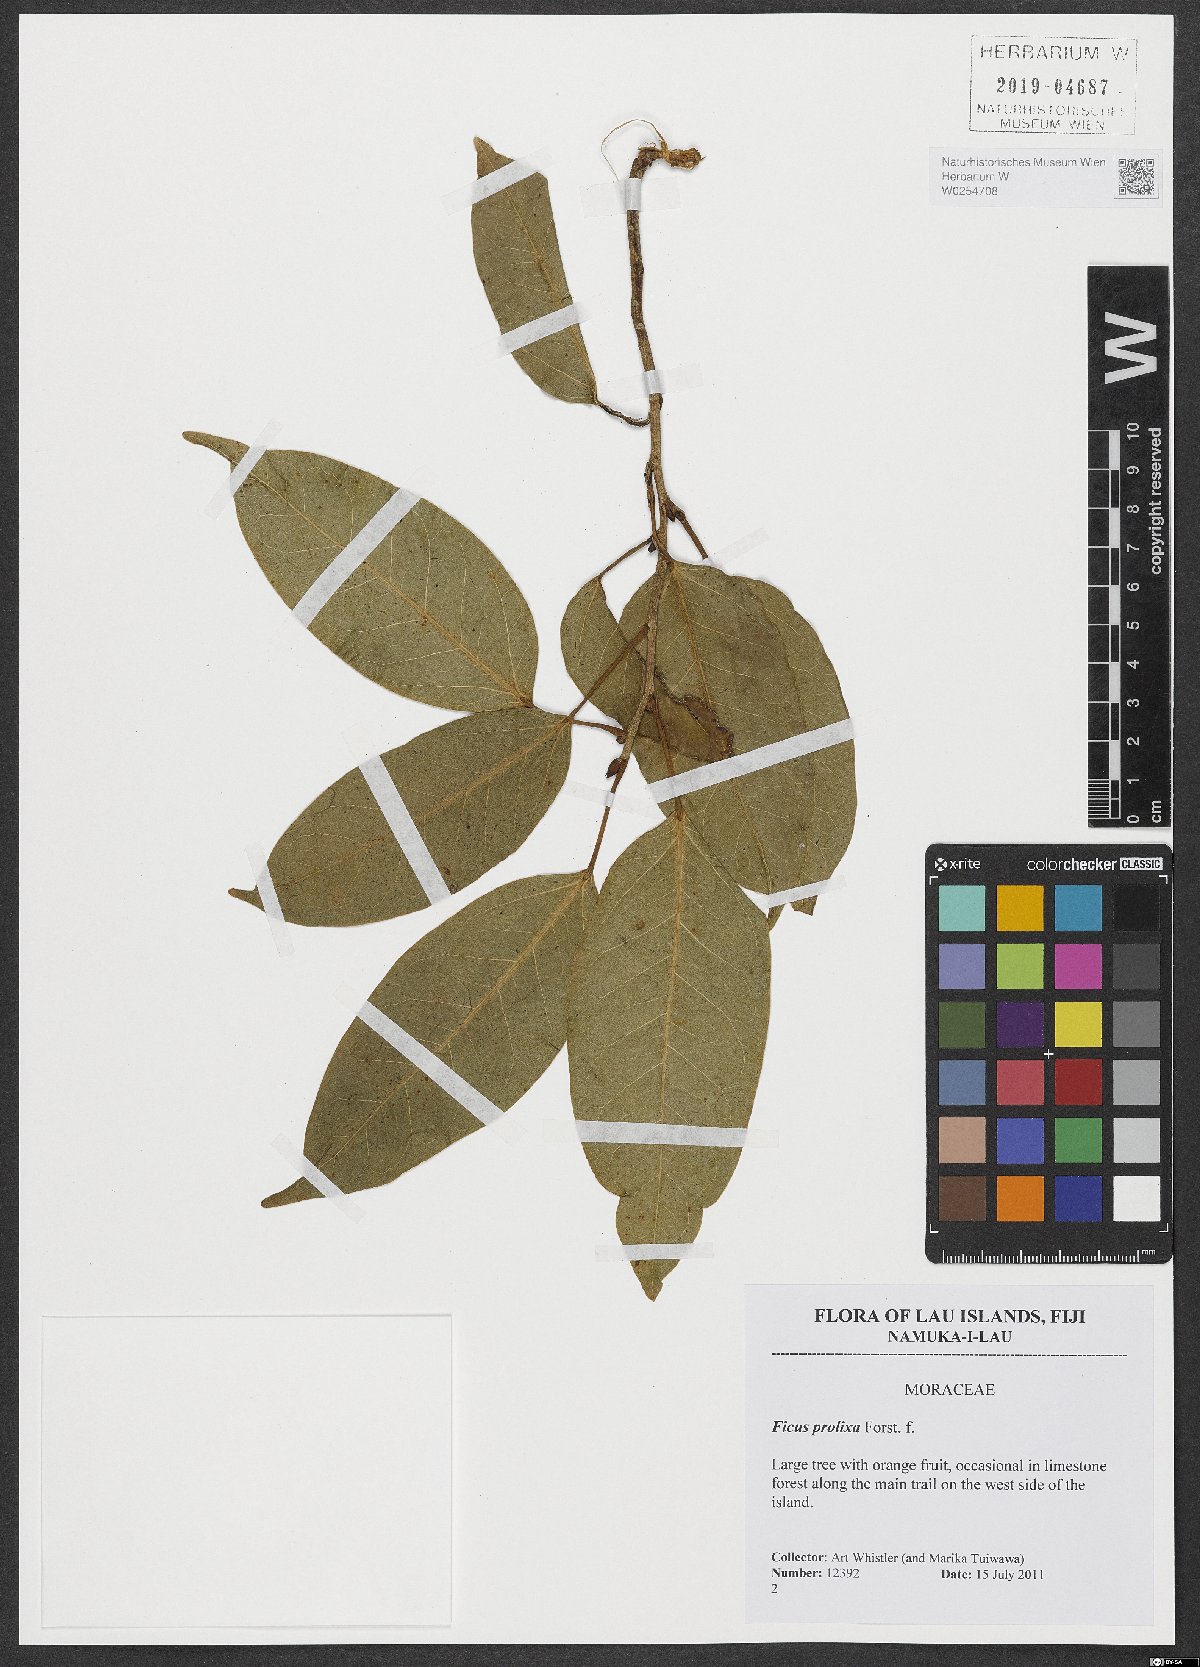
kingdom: Plantae
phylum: Tracheophyta
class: Magnoliopsida
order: Rosales
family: Moraceae
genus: Ficus
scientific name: Ficus prolixa
